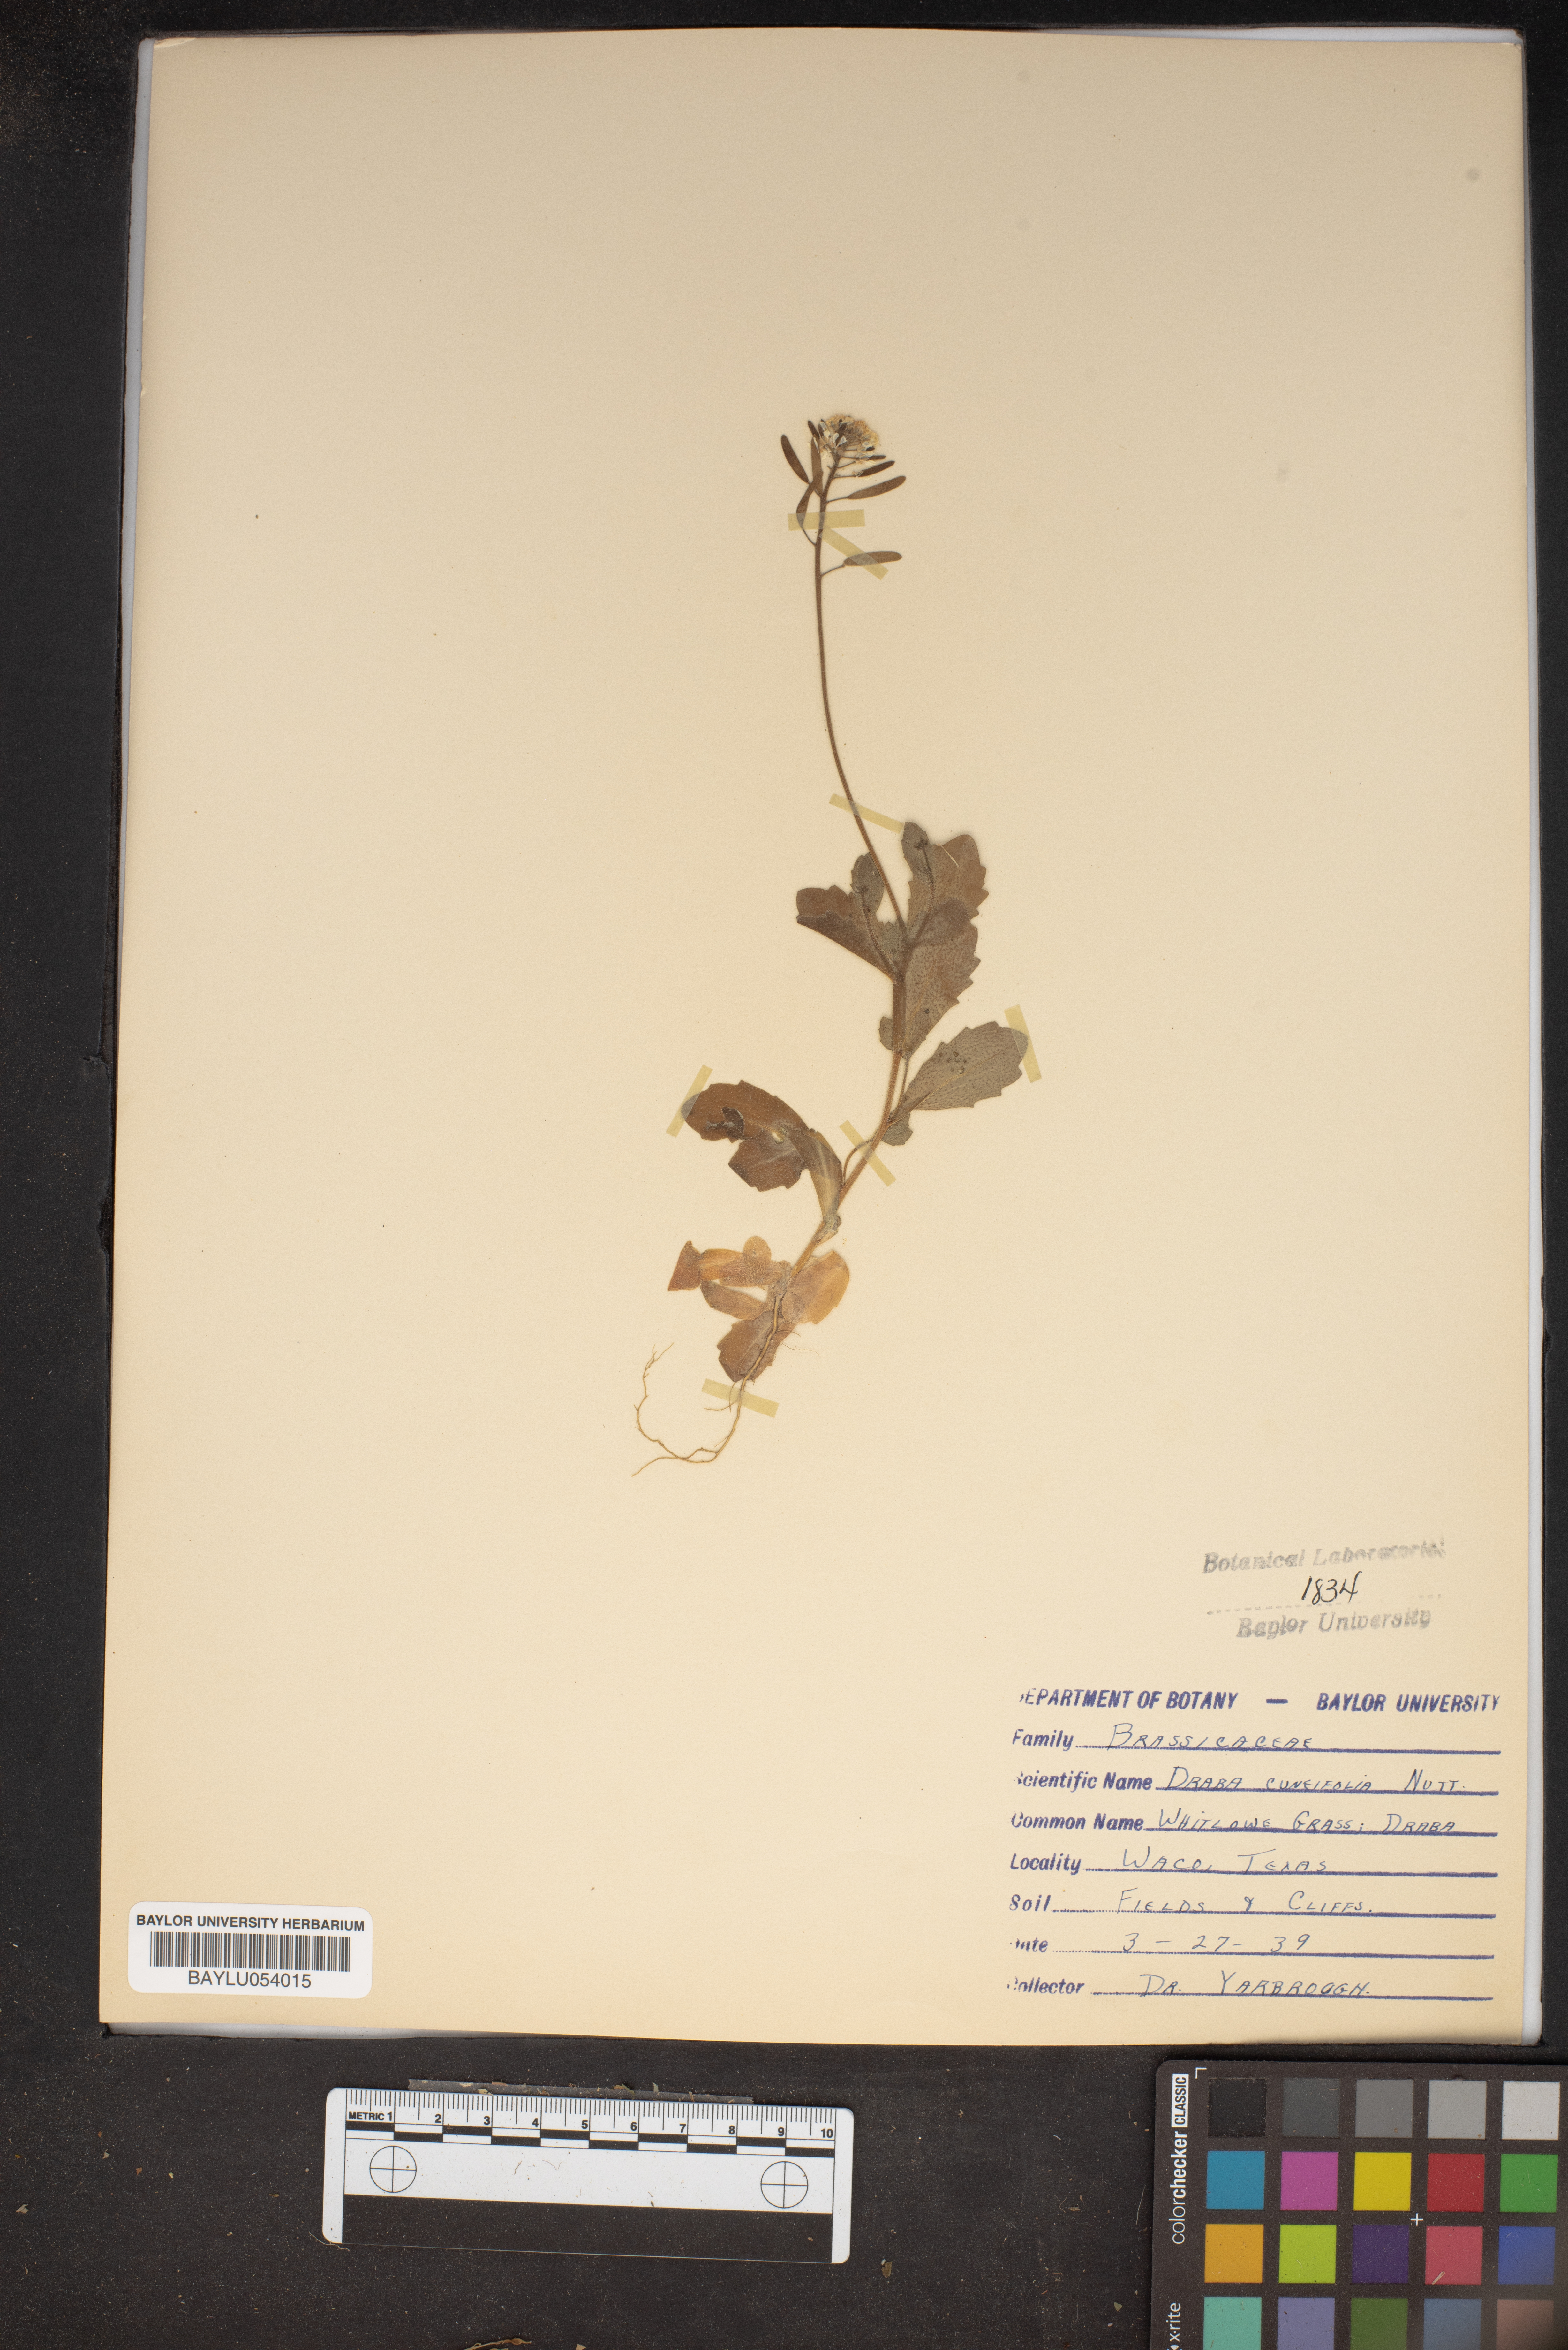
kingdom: Plantae
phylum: Tracheophyta
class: Magnoliopsida
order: Brassicales
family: Brassicaceae
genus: Tomostima
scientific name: Tomostima cuneifolia
